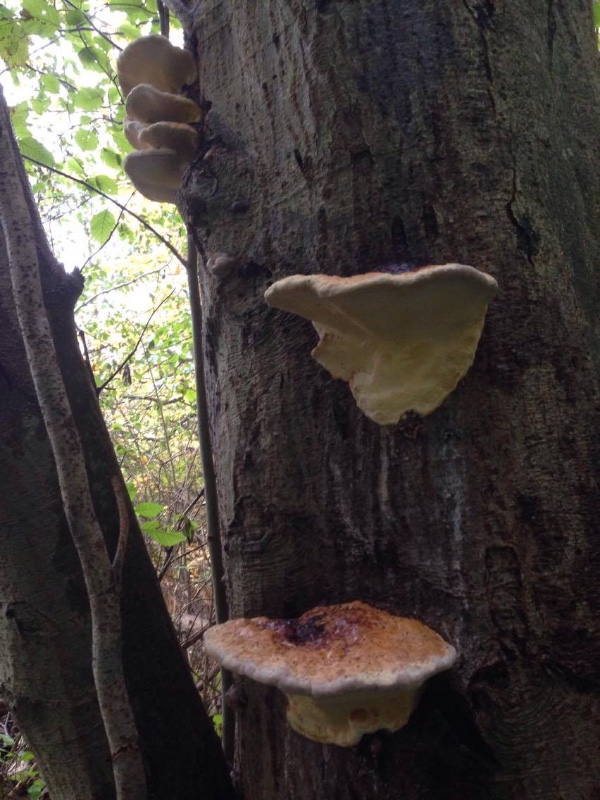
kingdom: Fungi
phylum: Basidiomycota
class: Agaricomycetes
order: Polyporales
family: Fomitopsidaceae
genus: Fomitopsis
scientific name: Fomitopsis pinicola
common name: randbæltet hovporesvamp
